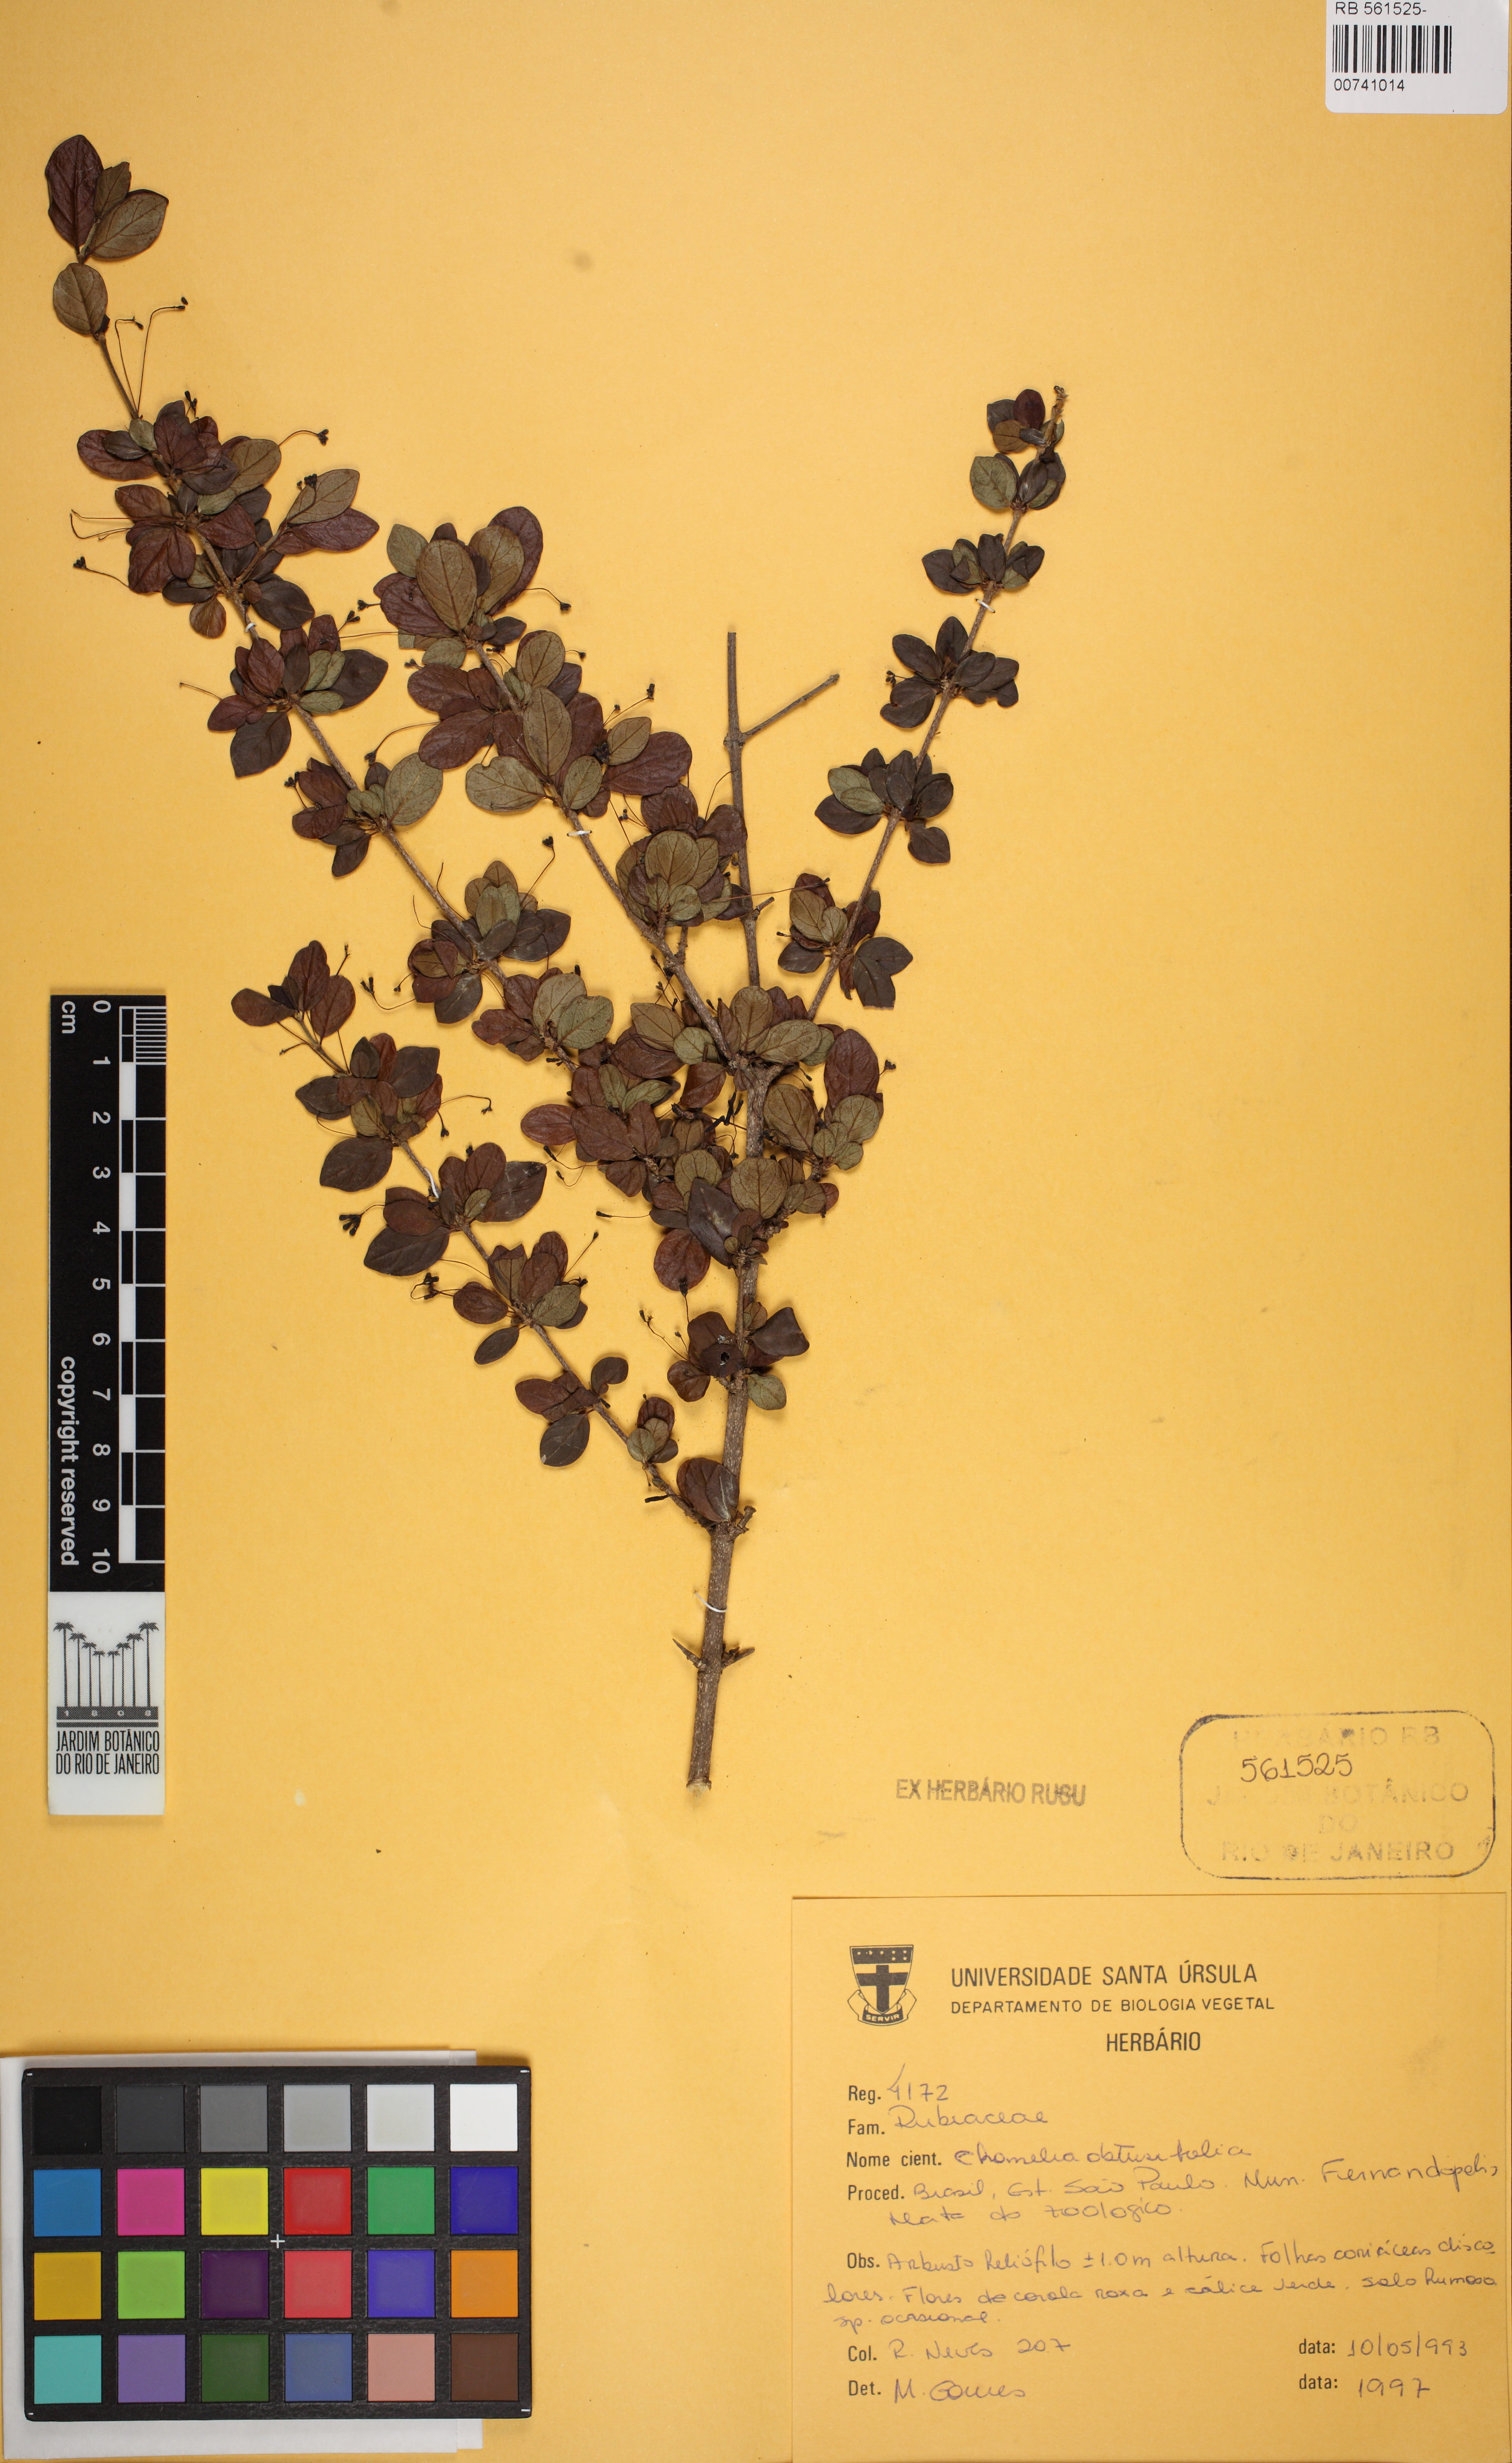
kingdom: Plantae
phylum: Tracheophyta
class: Magnoliopsida
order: Gentianales
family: Rubiaceae
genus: Chomelia
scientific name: Chomelia obtusa
